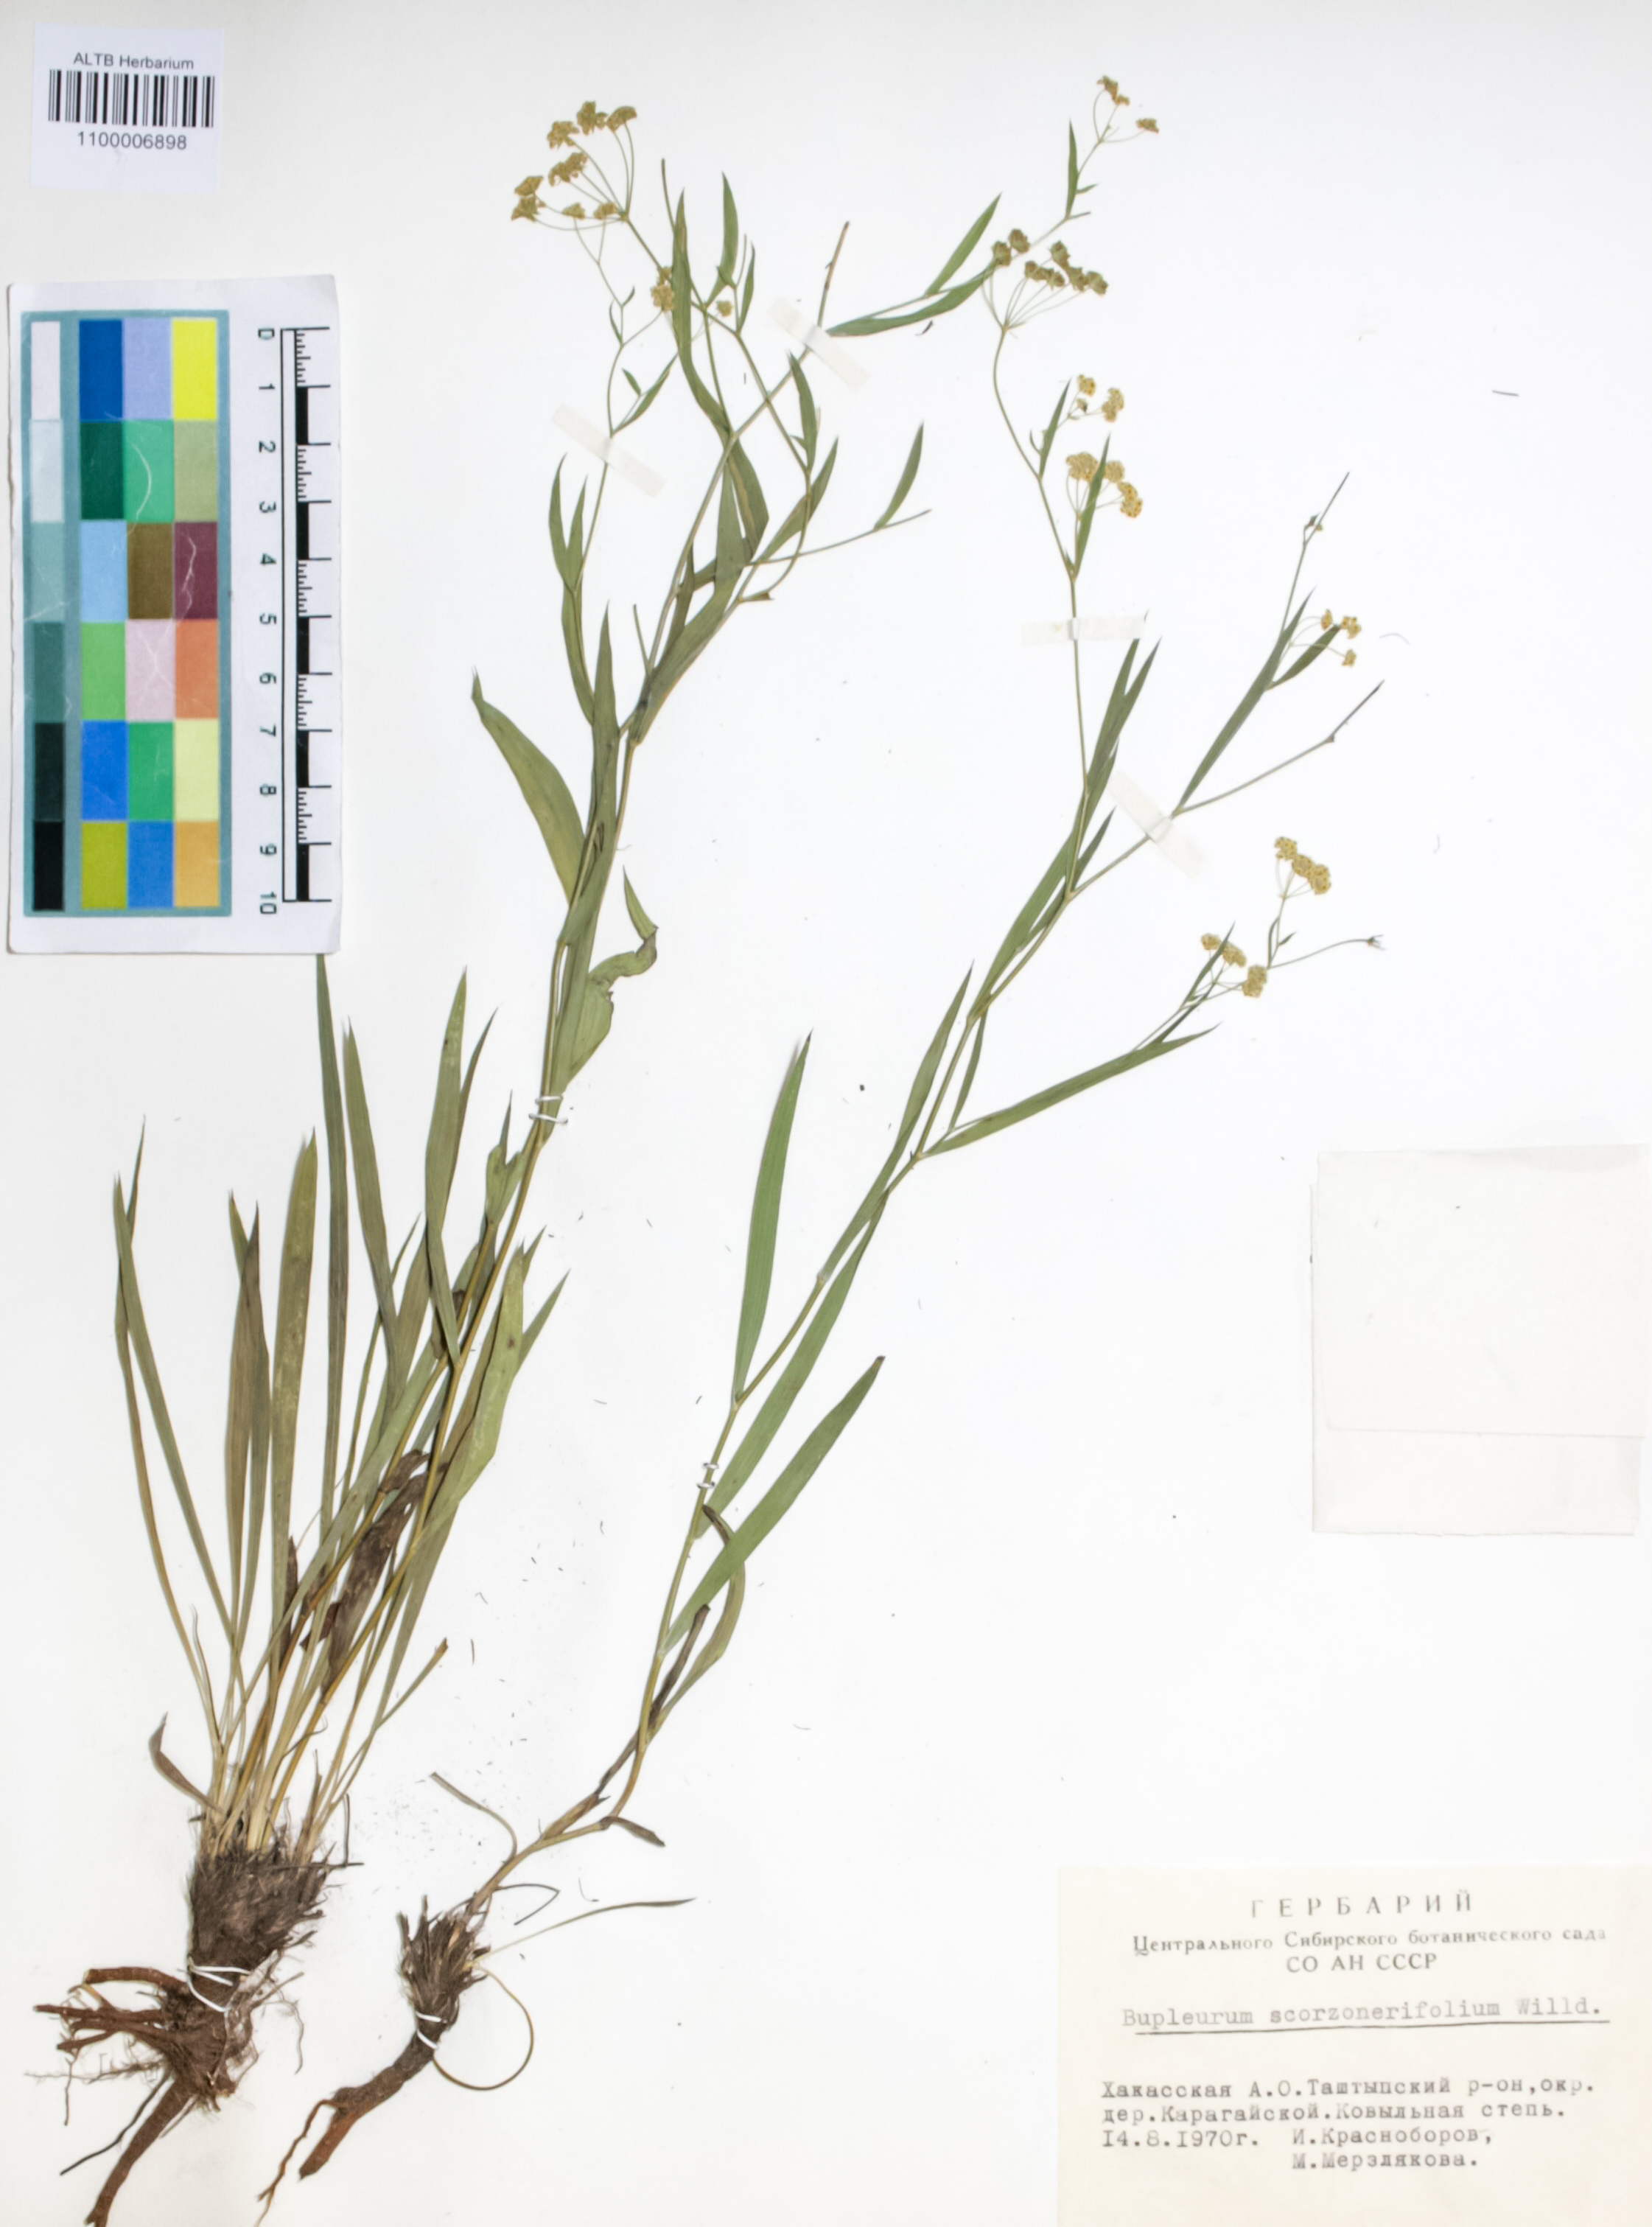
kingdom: Plantae
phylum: Tracheophyta
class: Magnoliopsida
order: Apiales
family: Apiaceae
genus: Bupleurum
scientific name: Bupleurum scorzonerifolium
